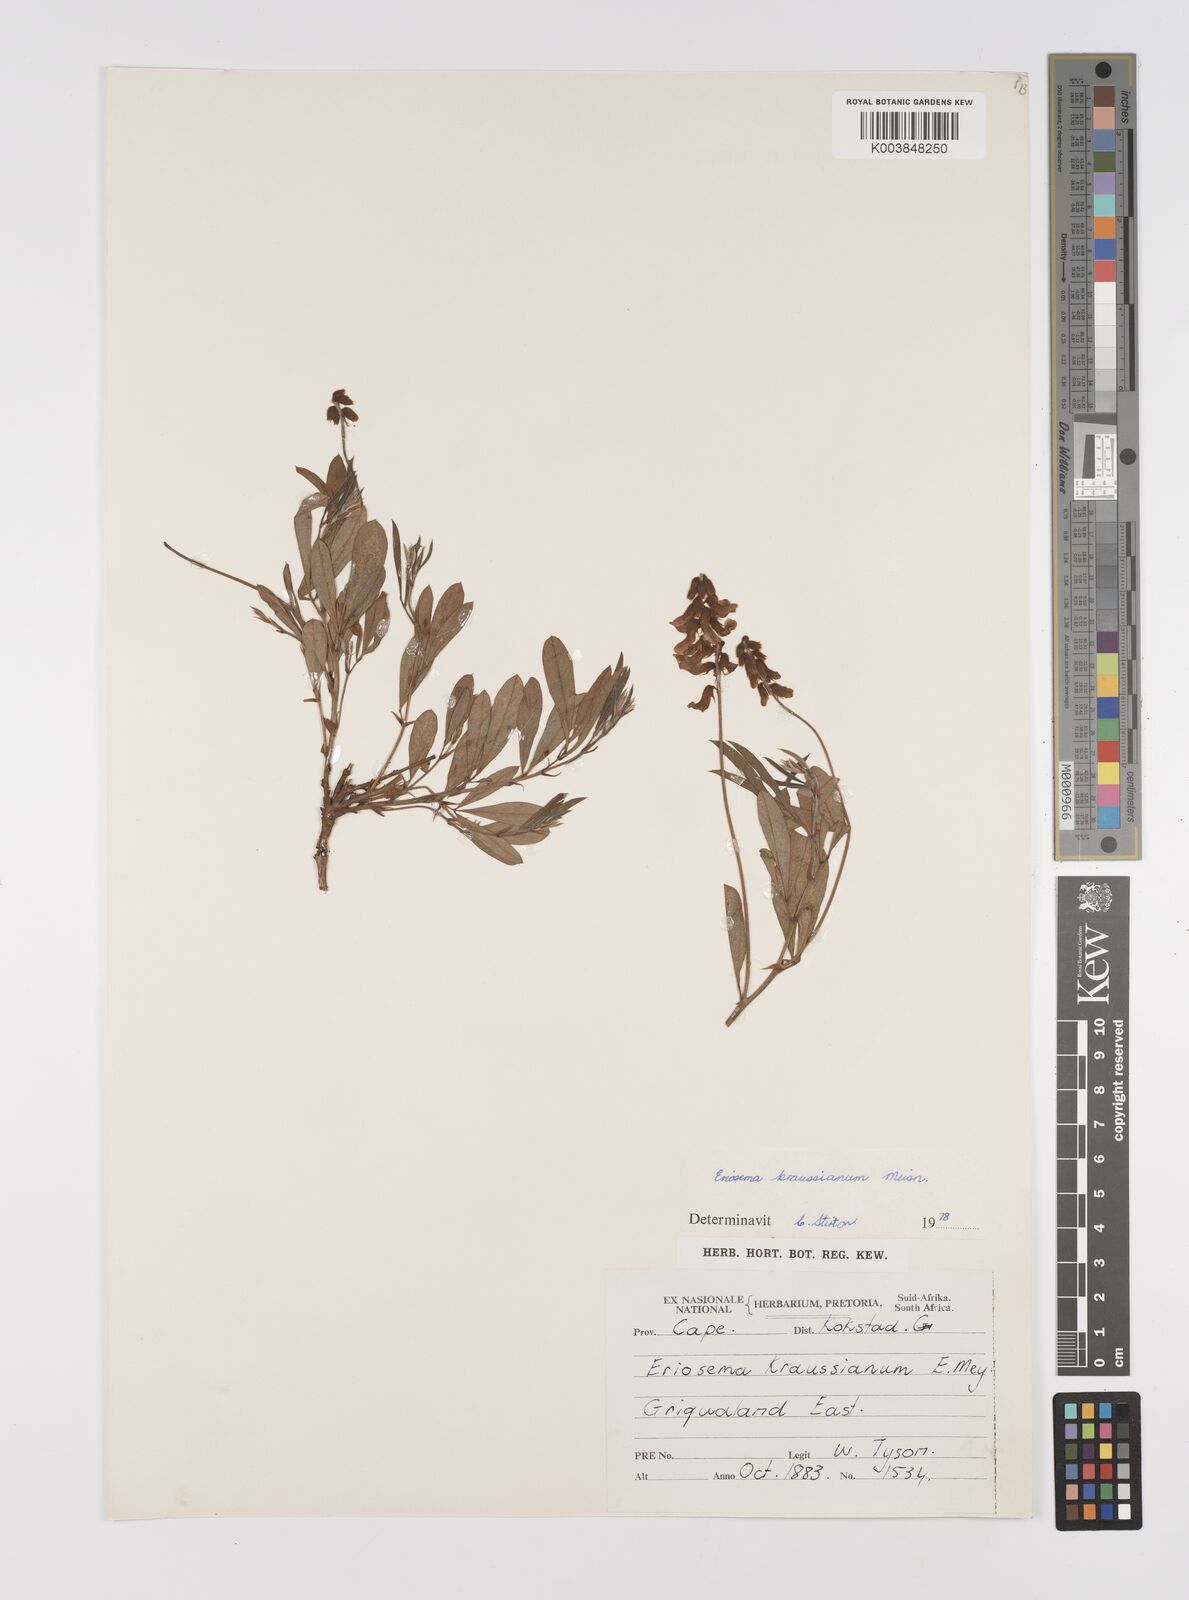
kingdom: Plantae
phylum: Tracheophyta
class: Magnoliopsida
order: Fabales
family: Fabaceae
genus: Eriosema
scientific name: Eriosema kraussianum
